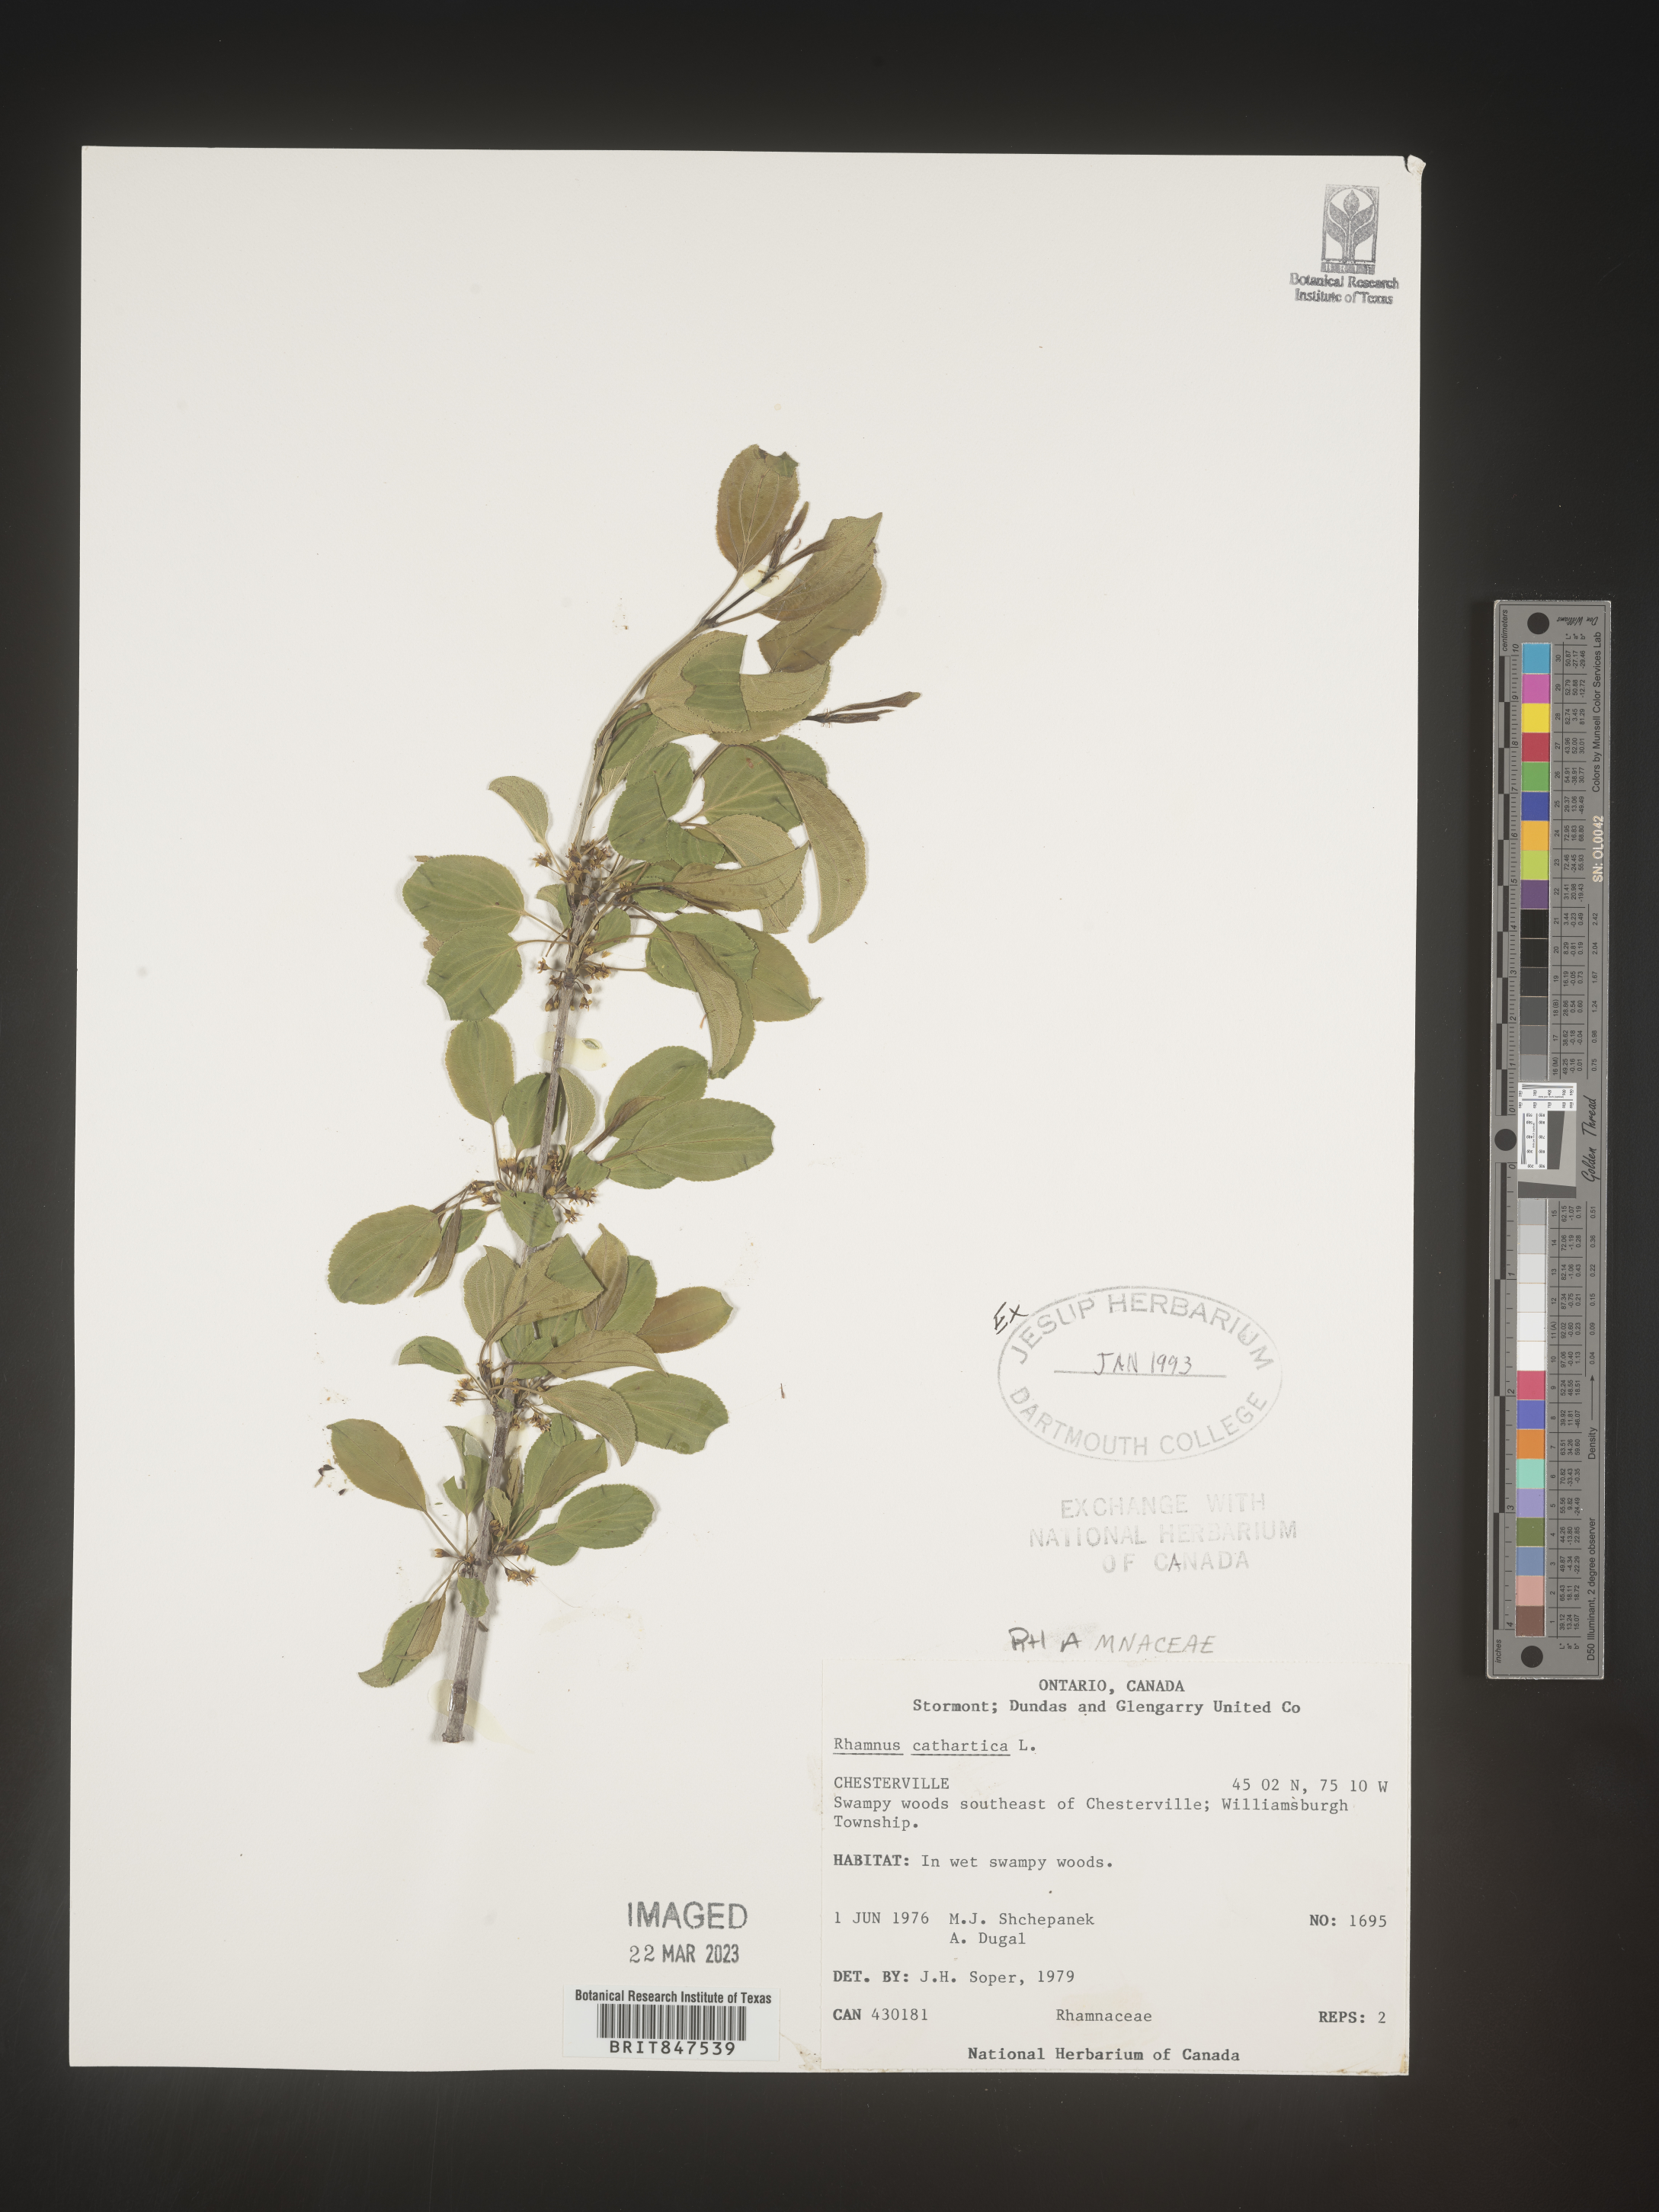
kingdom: Plantae
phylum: Tracheophyta
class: Magnoliopsida
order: Rosales
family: Rhamnaceae
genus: Rhamnus
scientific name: Rhamnus cathartica
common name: Common buckthorn
